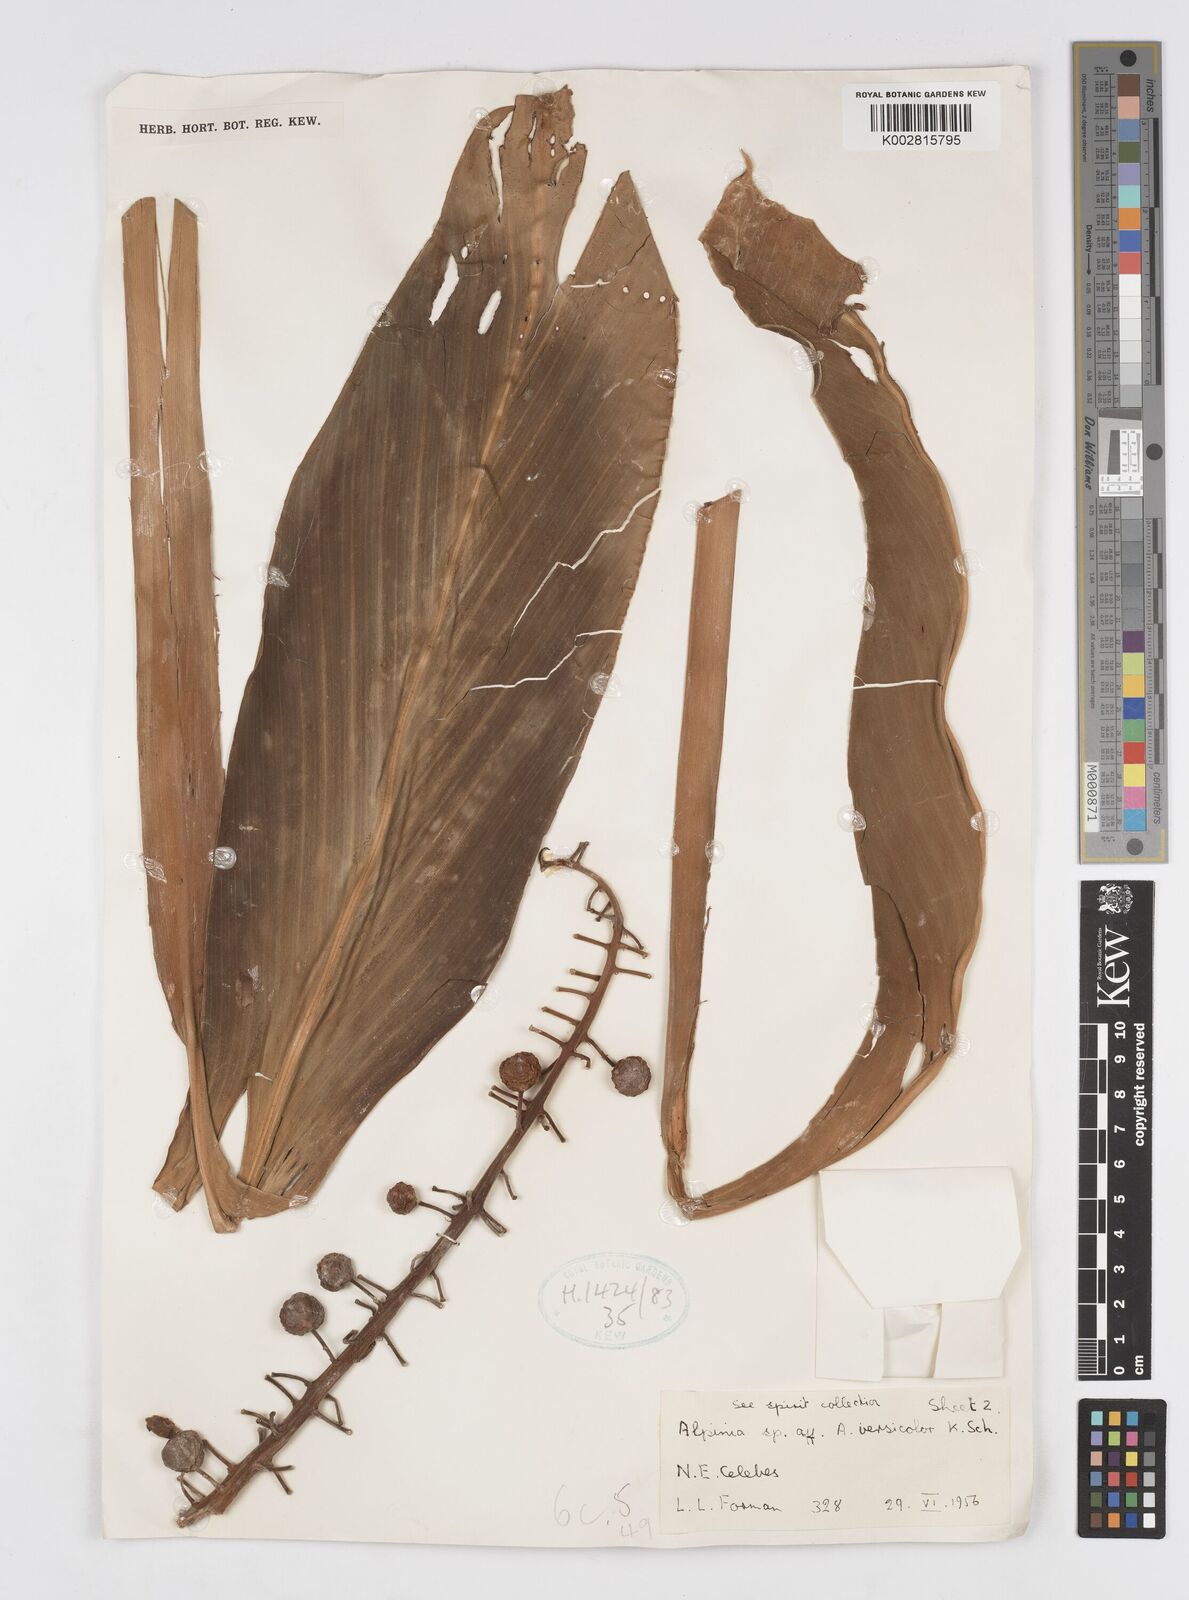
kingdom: Plantae
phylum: Tracheophyta
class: Liliopsida
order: Zingiberales
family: Zingiberaceae
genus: Alpinia
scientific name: Alpinia versicolor
